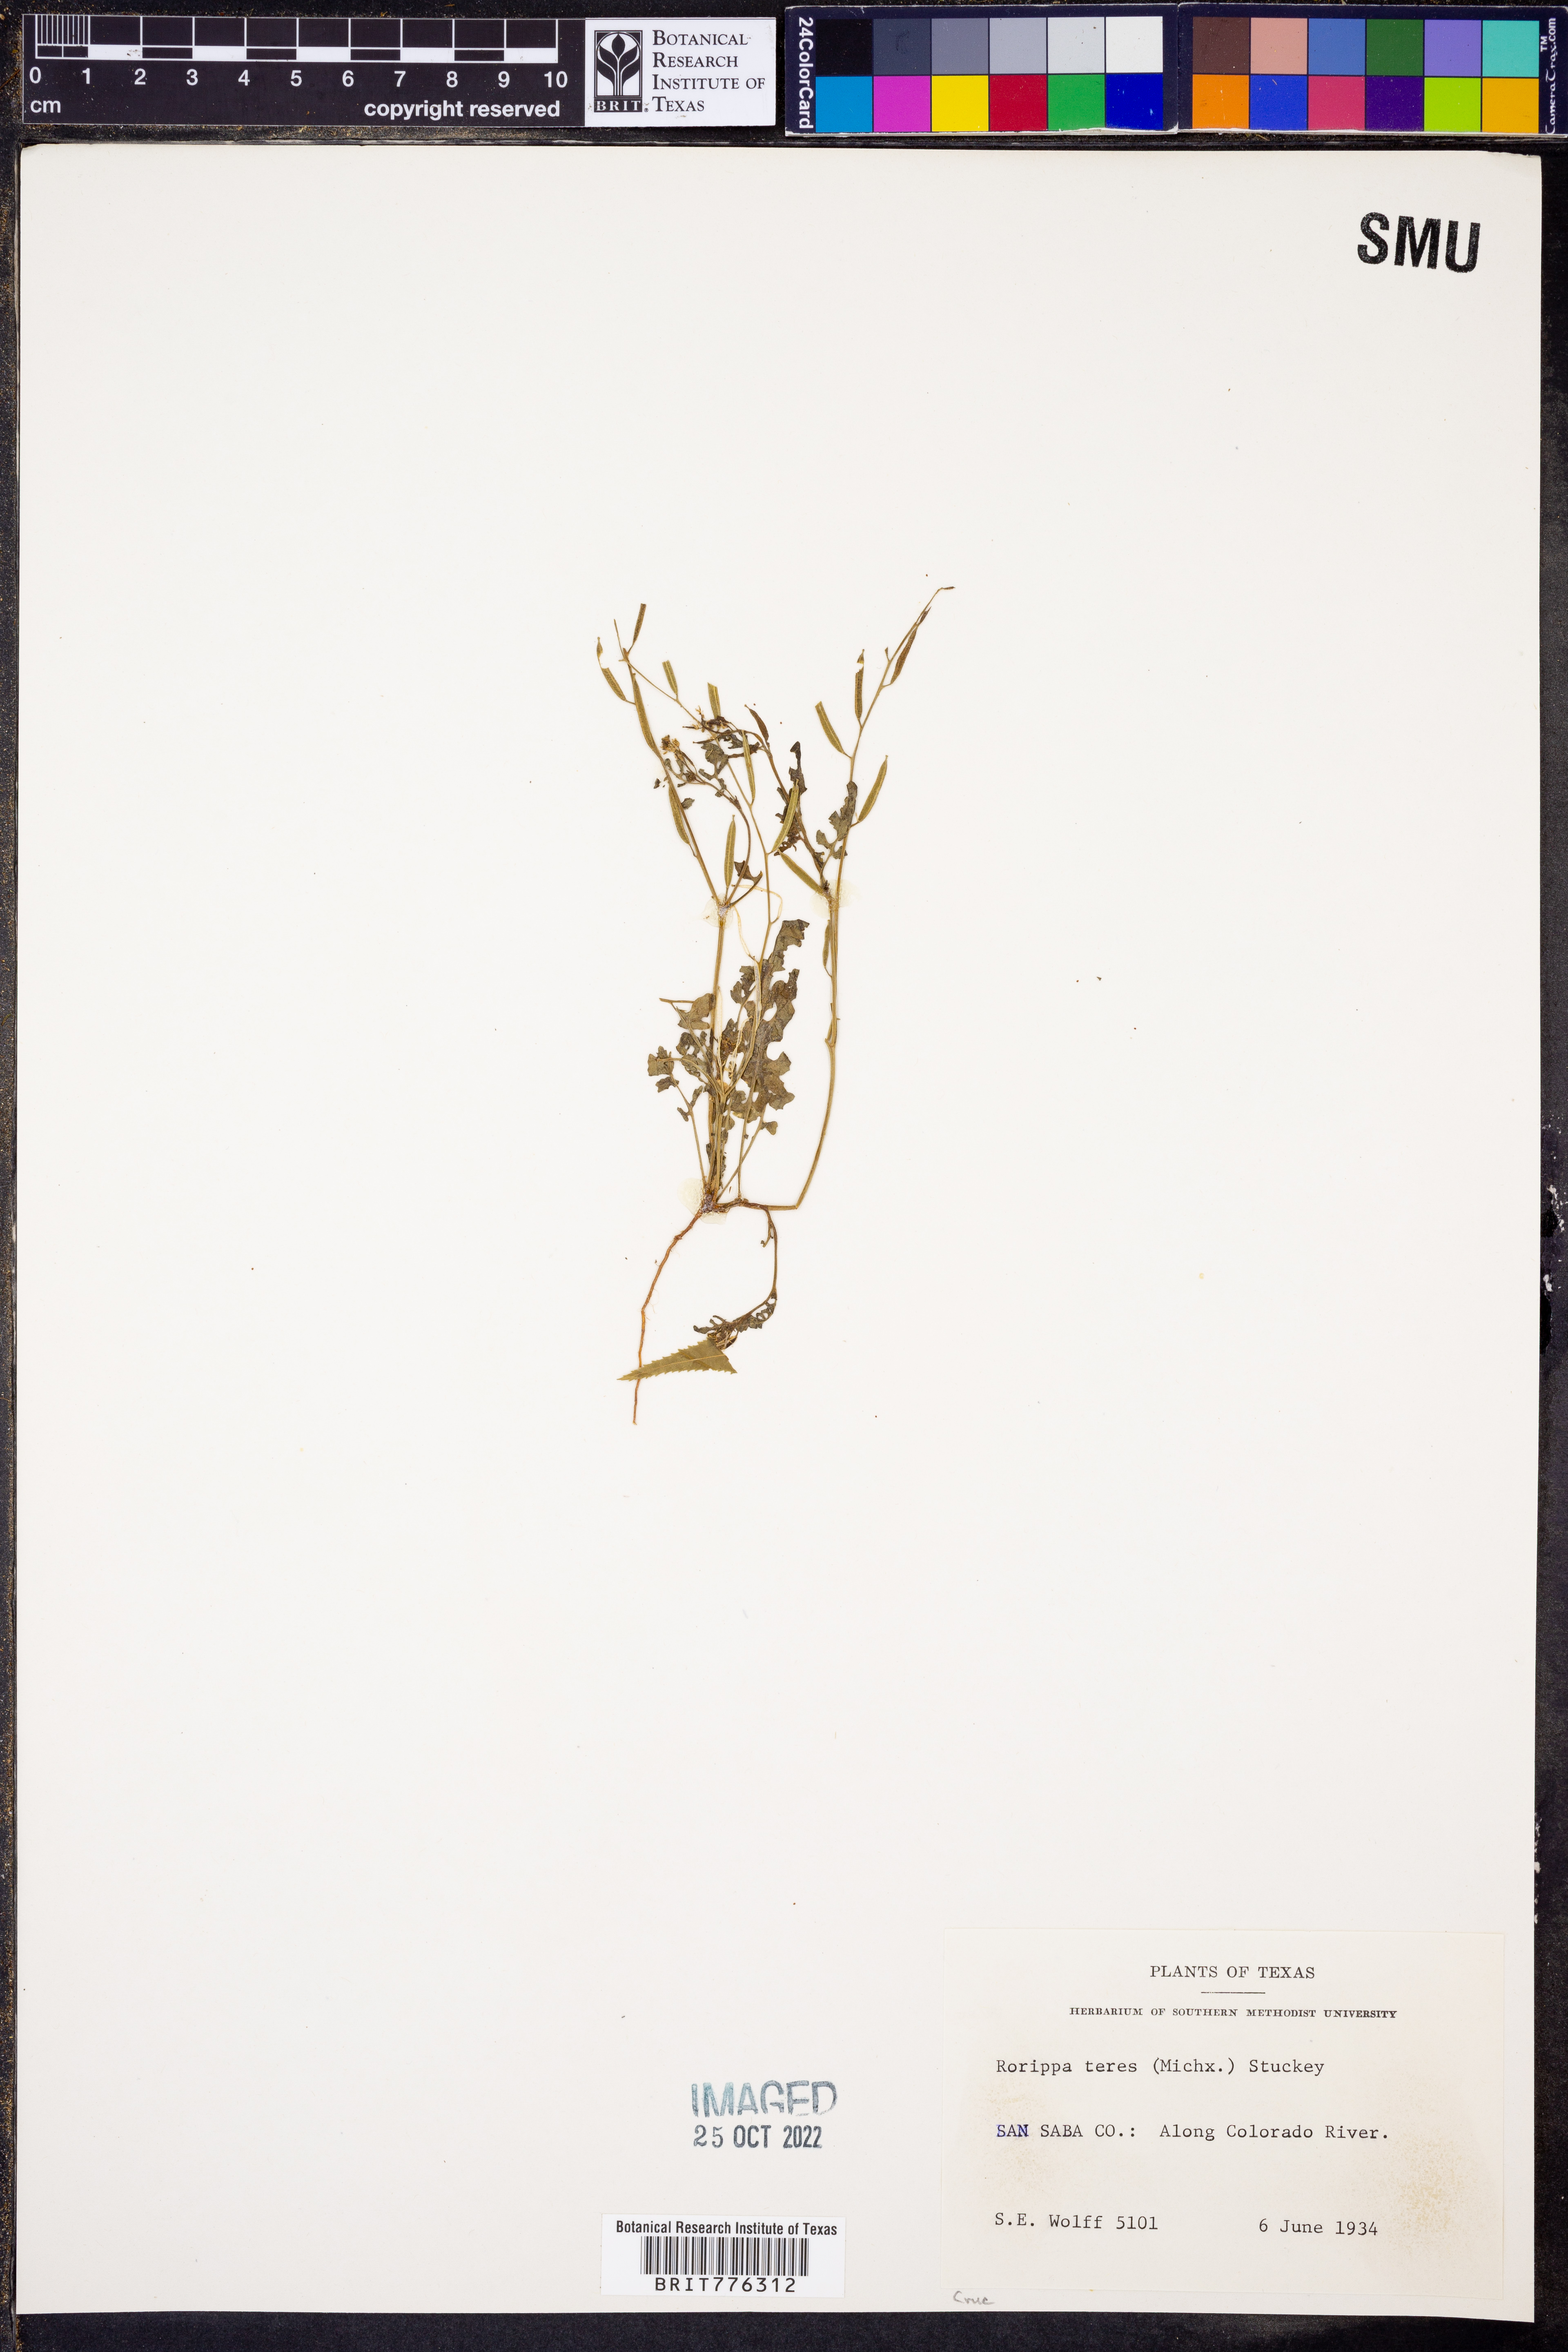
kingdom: Plantae
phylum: Tracheophyta
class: Magnoliopsida
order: Brassicales
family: Brassicaceae
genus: Rorippa
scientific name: Rorippa teres
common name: Southern marsh yellowcress
